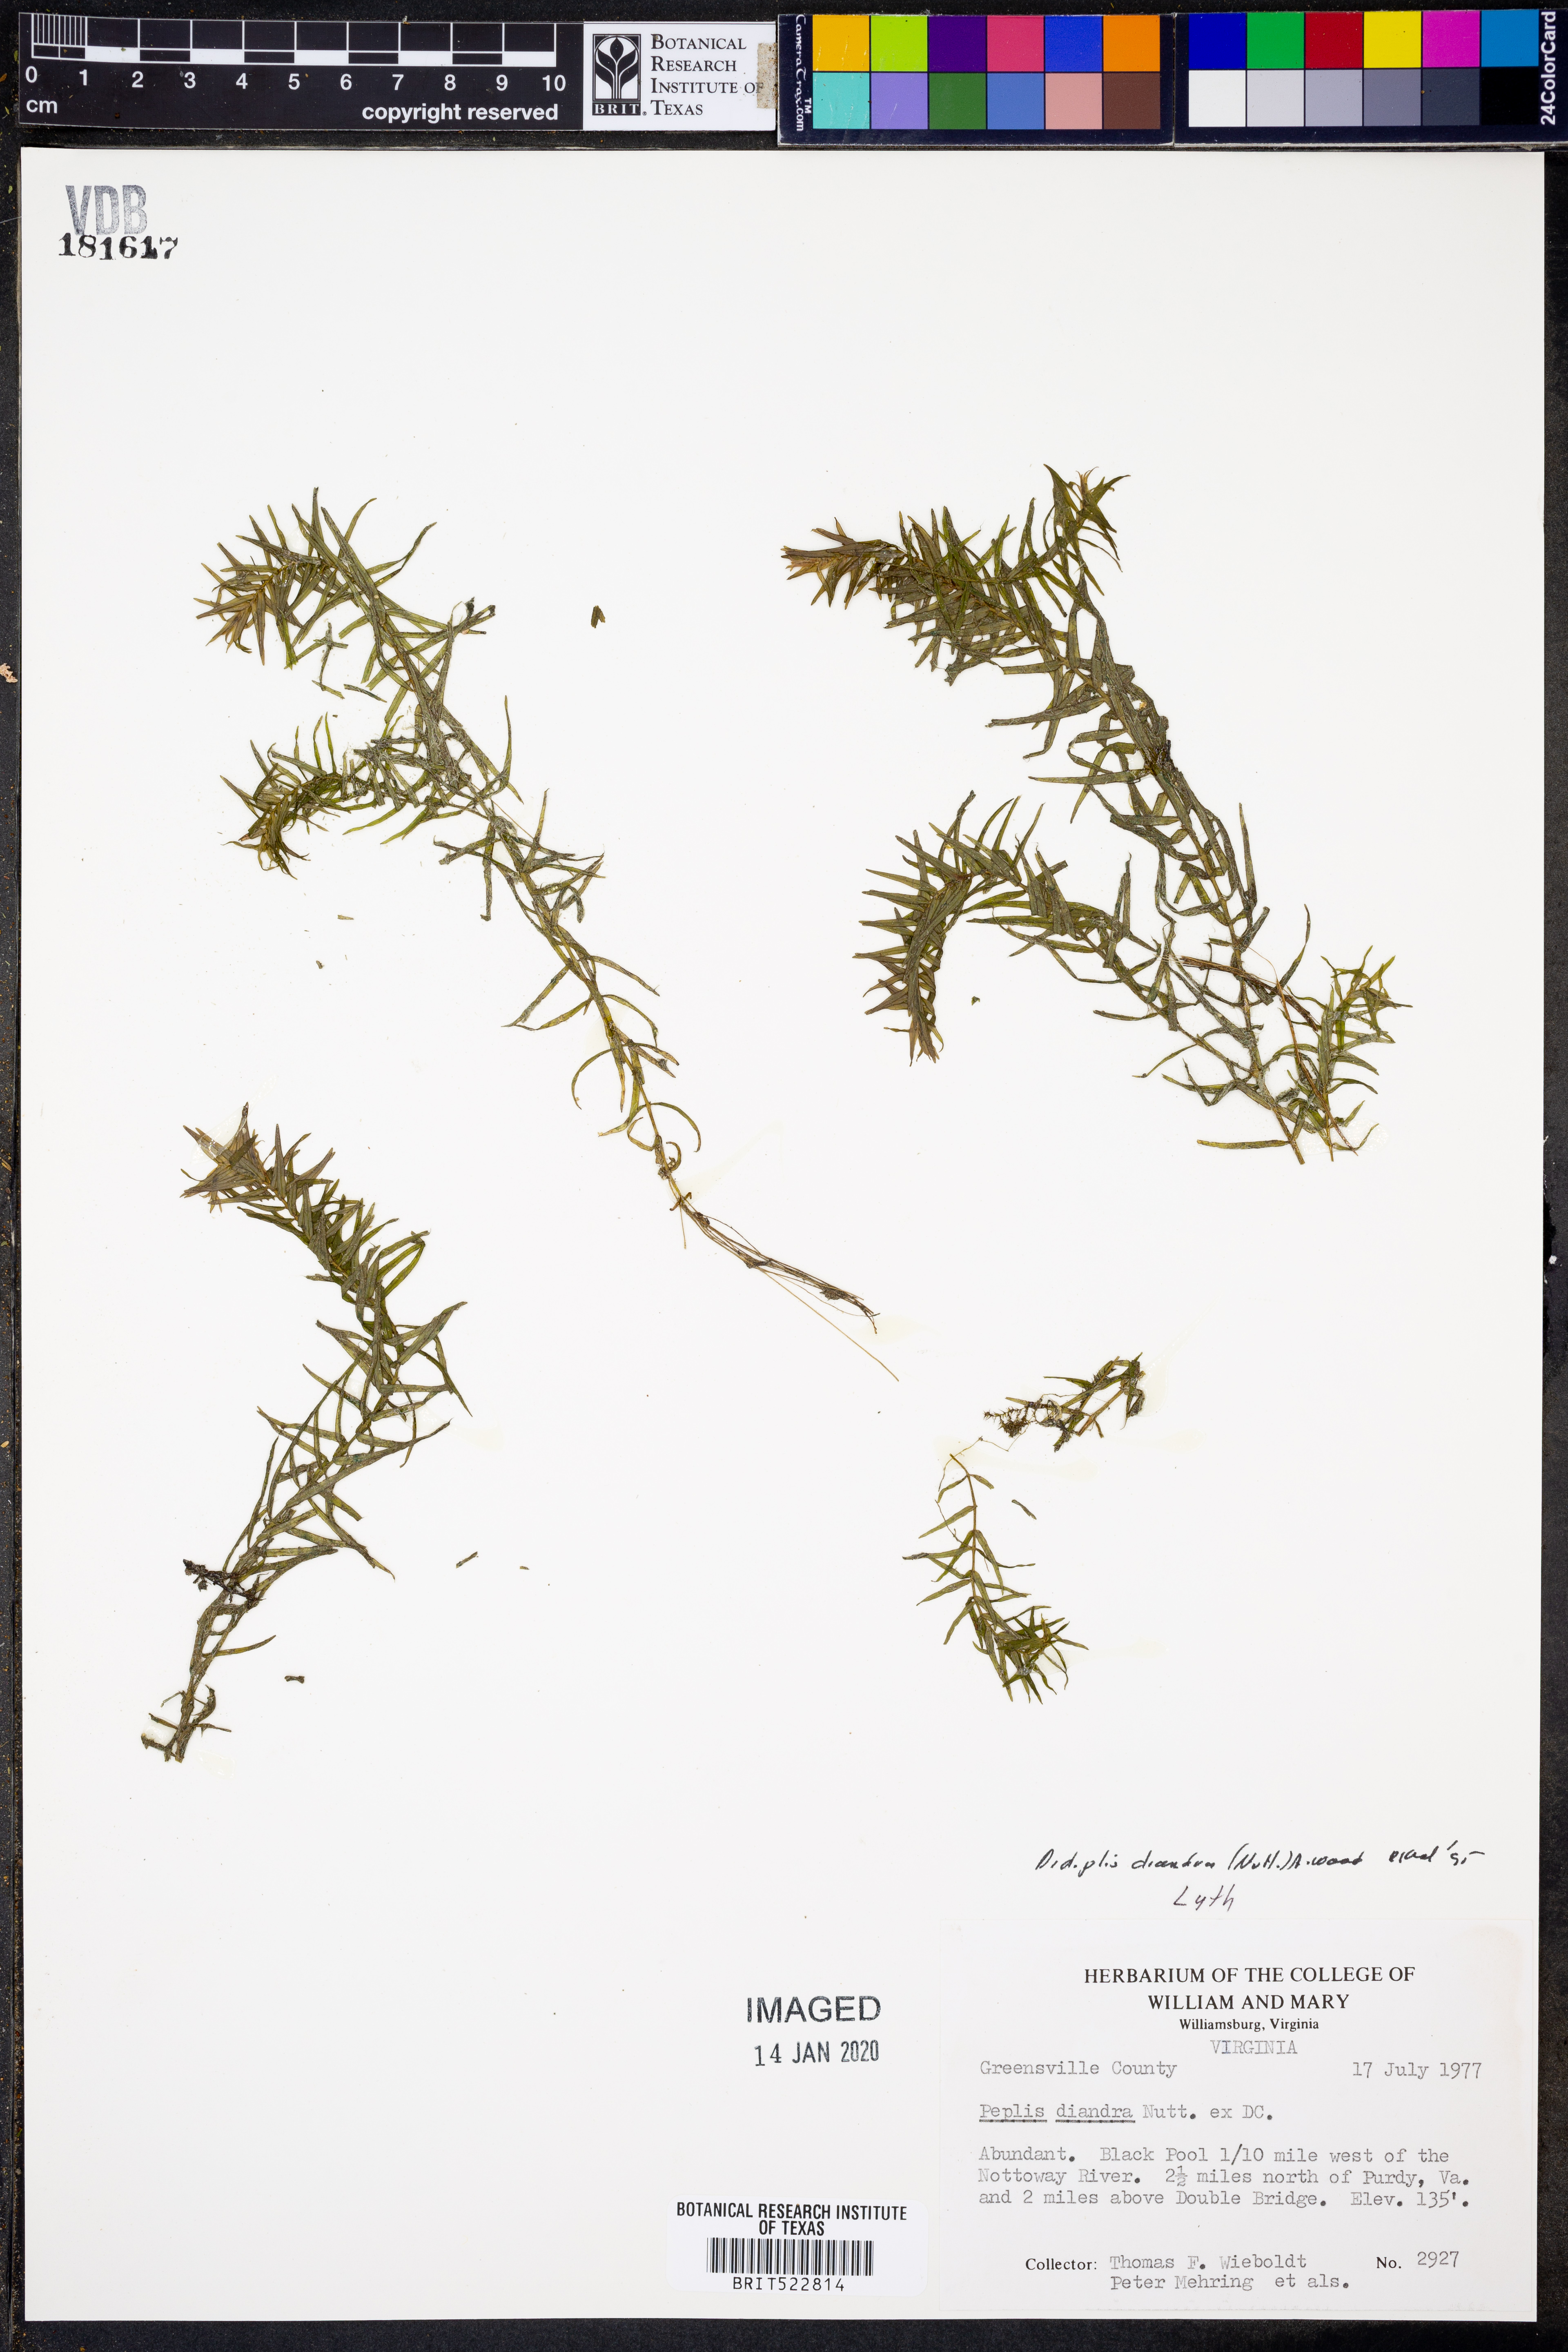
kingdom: Plantae
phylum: Tracheophyta
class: Magnoliopsida
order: Myrtales
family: Lythraceae
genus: Didiplis
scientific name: Didiplis diandra
